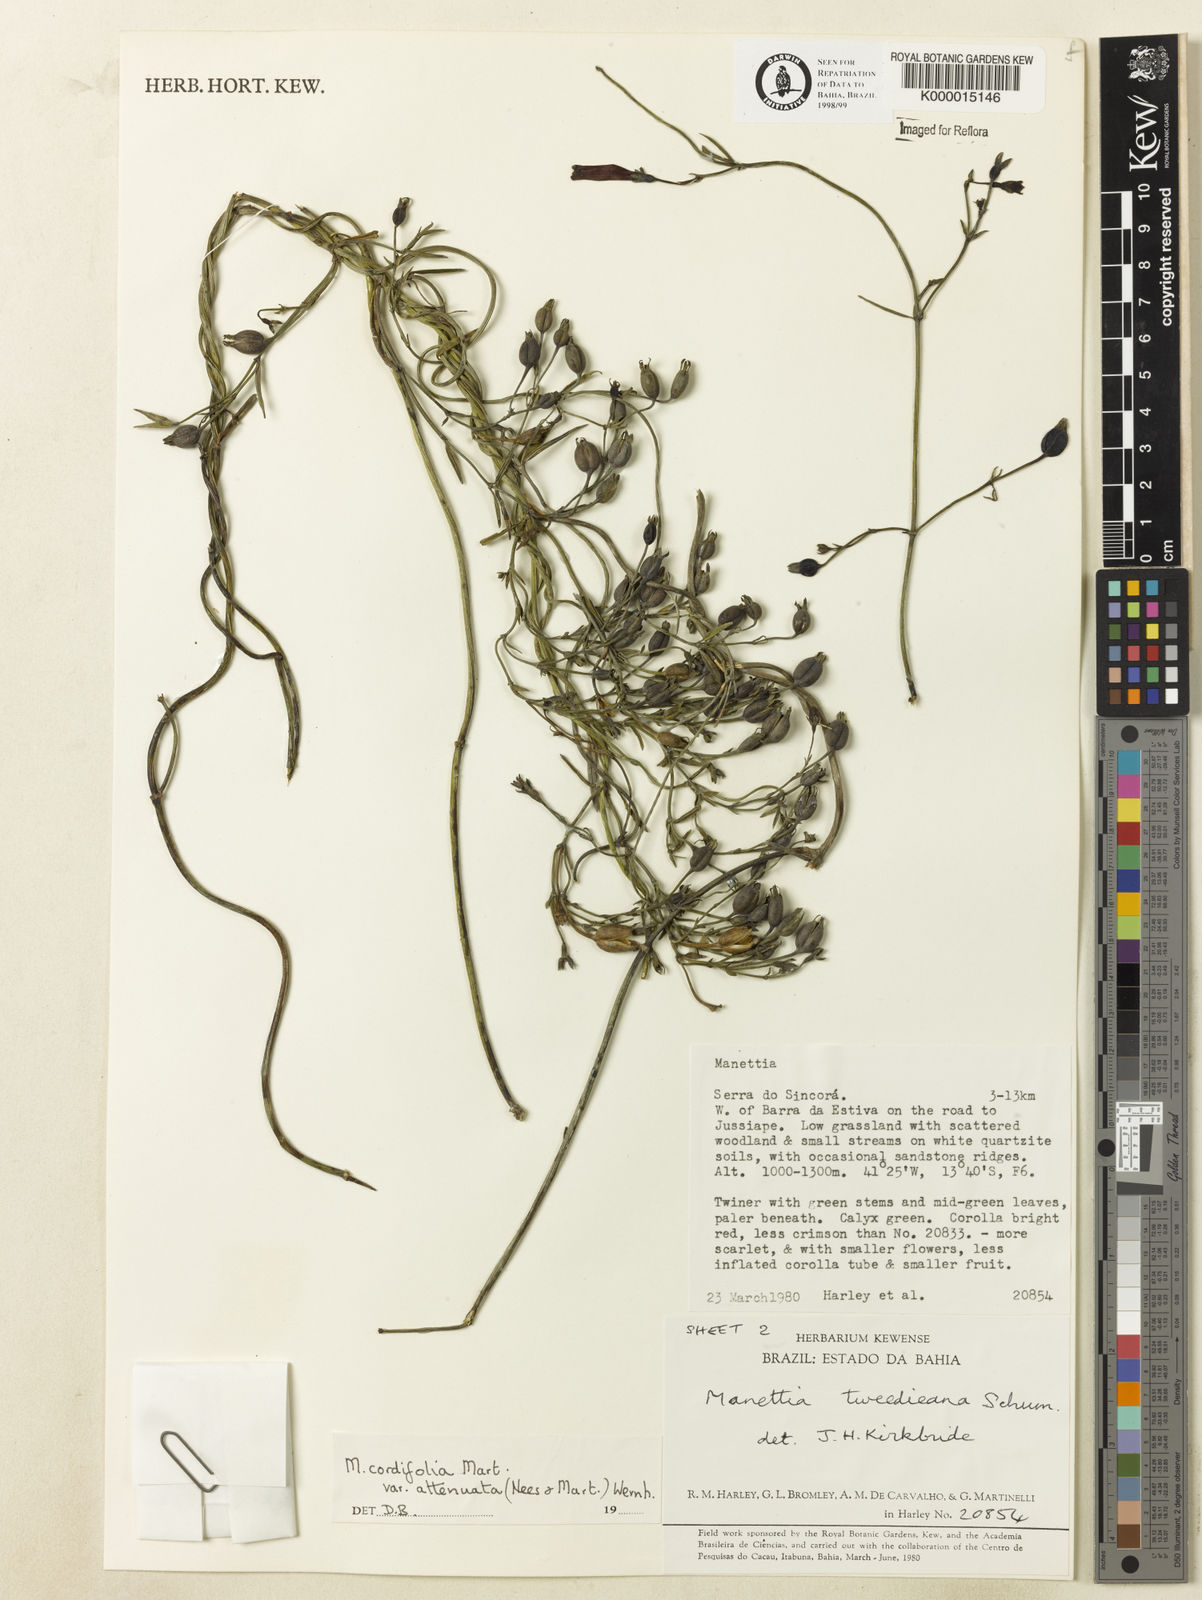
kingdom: Plantae
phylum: Tracheophyta
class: Magnoliopsida
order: Gentianales
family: Rubiaceae
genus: Manettia
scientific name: Manettia cordifolia
